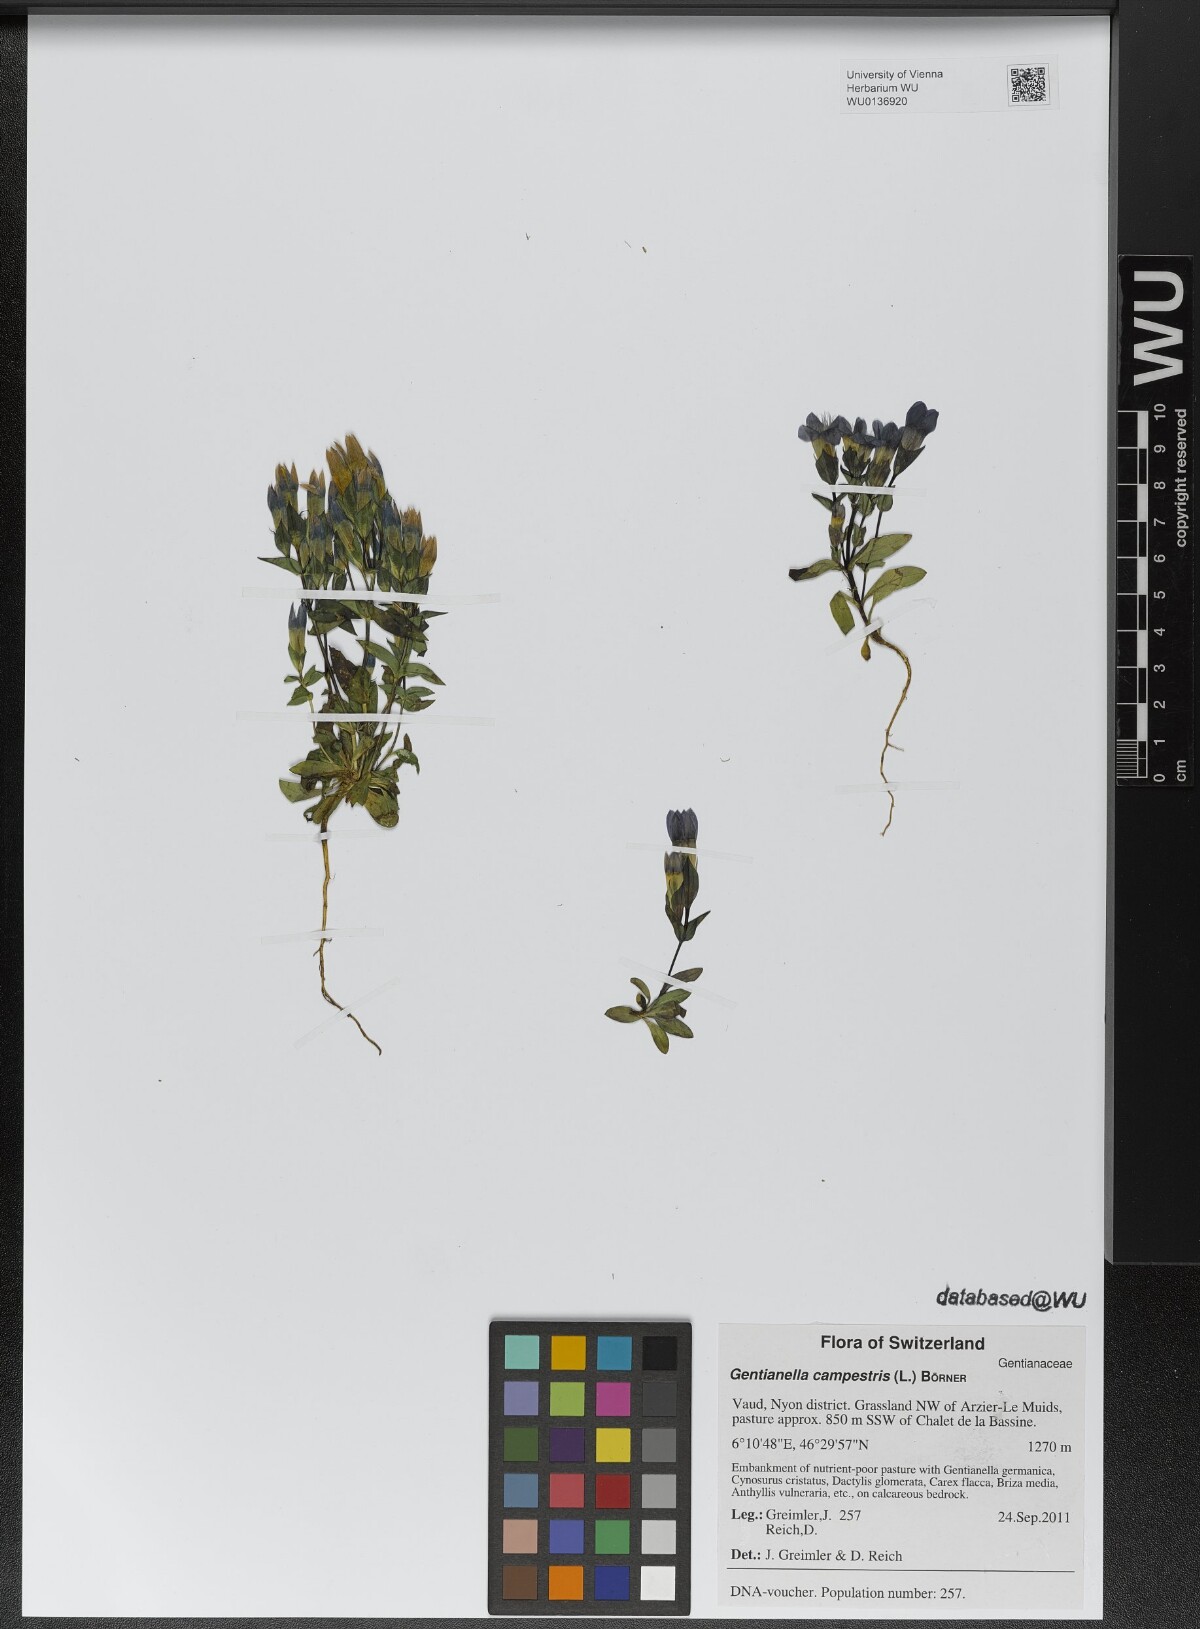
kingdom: Plantae
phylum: Tracheophyta
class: Magnoliopsida
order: Gentianales
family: Gentianaceae
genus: Gentianella
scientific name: Gentianella campestris
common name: Field gentian
